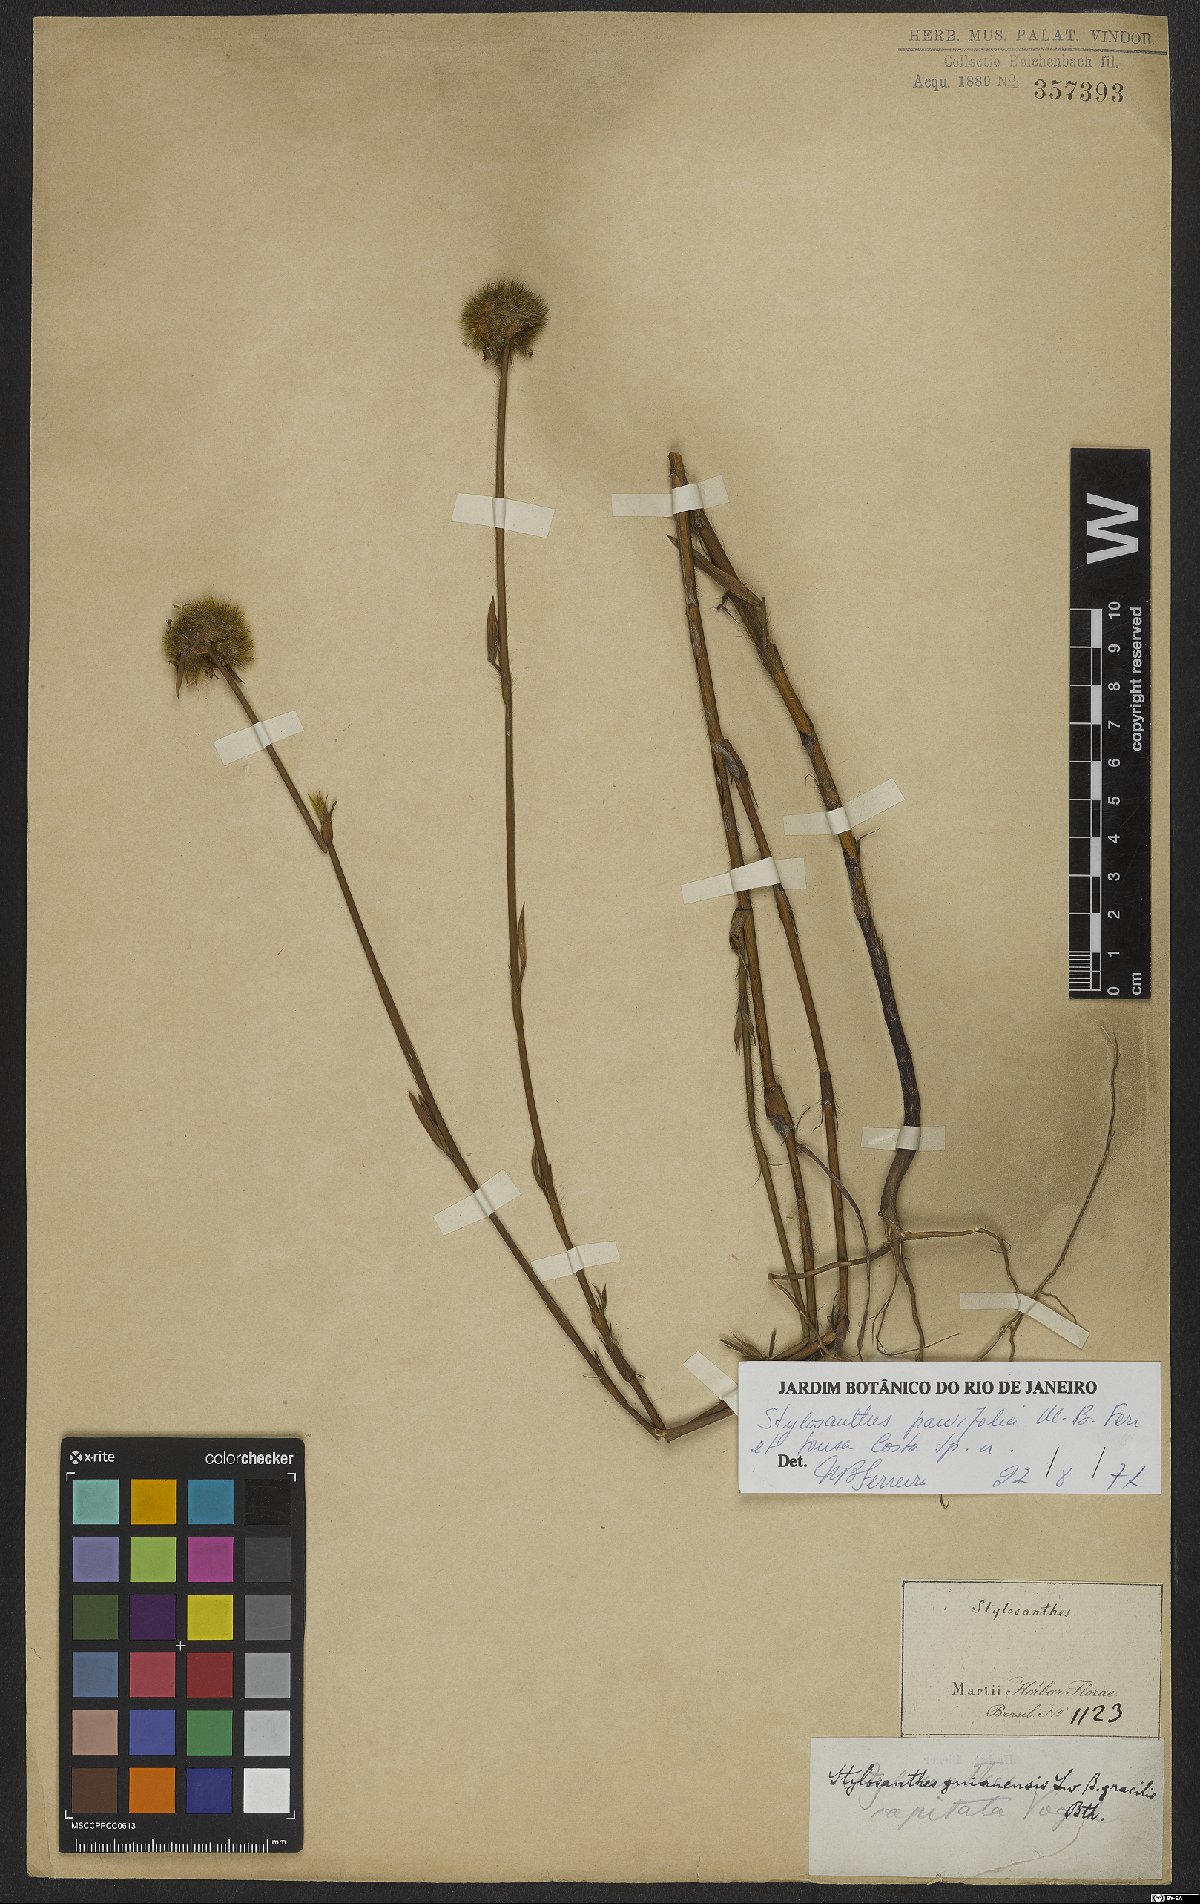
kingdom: Plantae
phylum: Tracheophyta
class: Magnoliopsida
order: Fabales
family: Fabaceae
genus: Stylosanthes
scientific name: Stylosanthes
